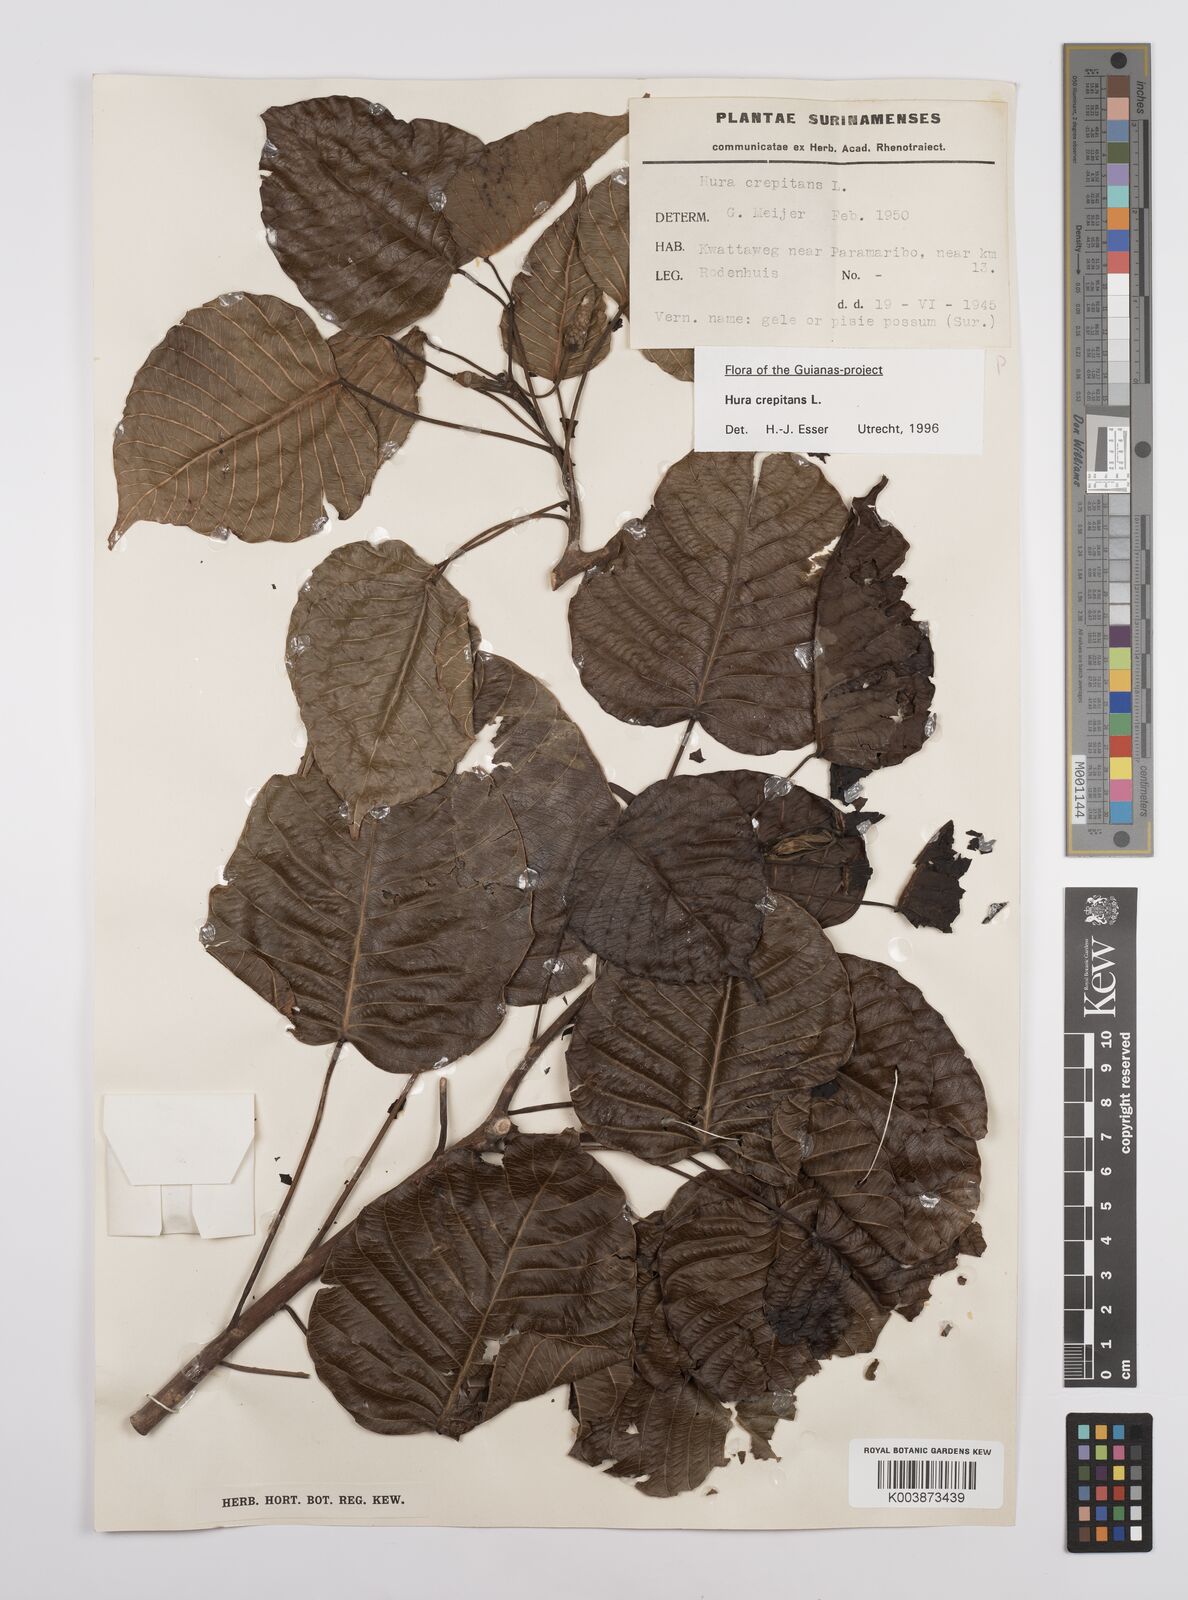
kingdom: Plantae
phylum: Tracheophyta
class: Magnoliopsida
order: Malpighiales
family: Euphorbiaceae
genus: Hura
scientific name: Hura crepitans
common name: Sandboxtree
